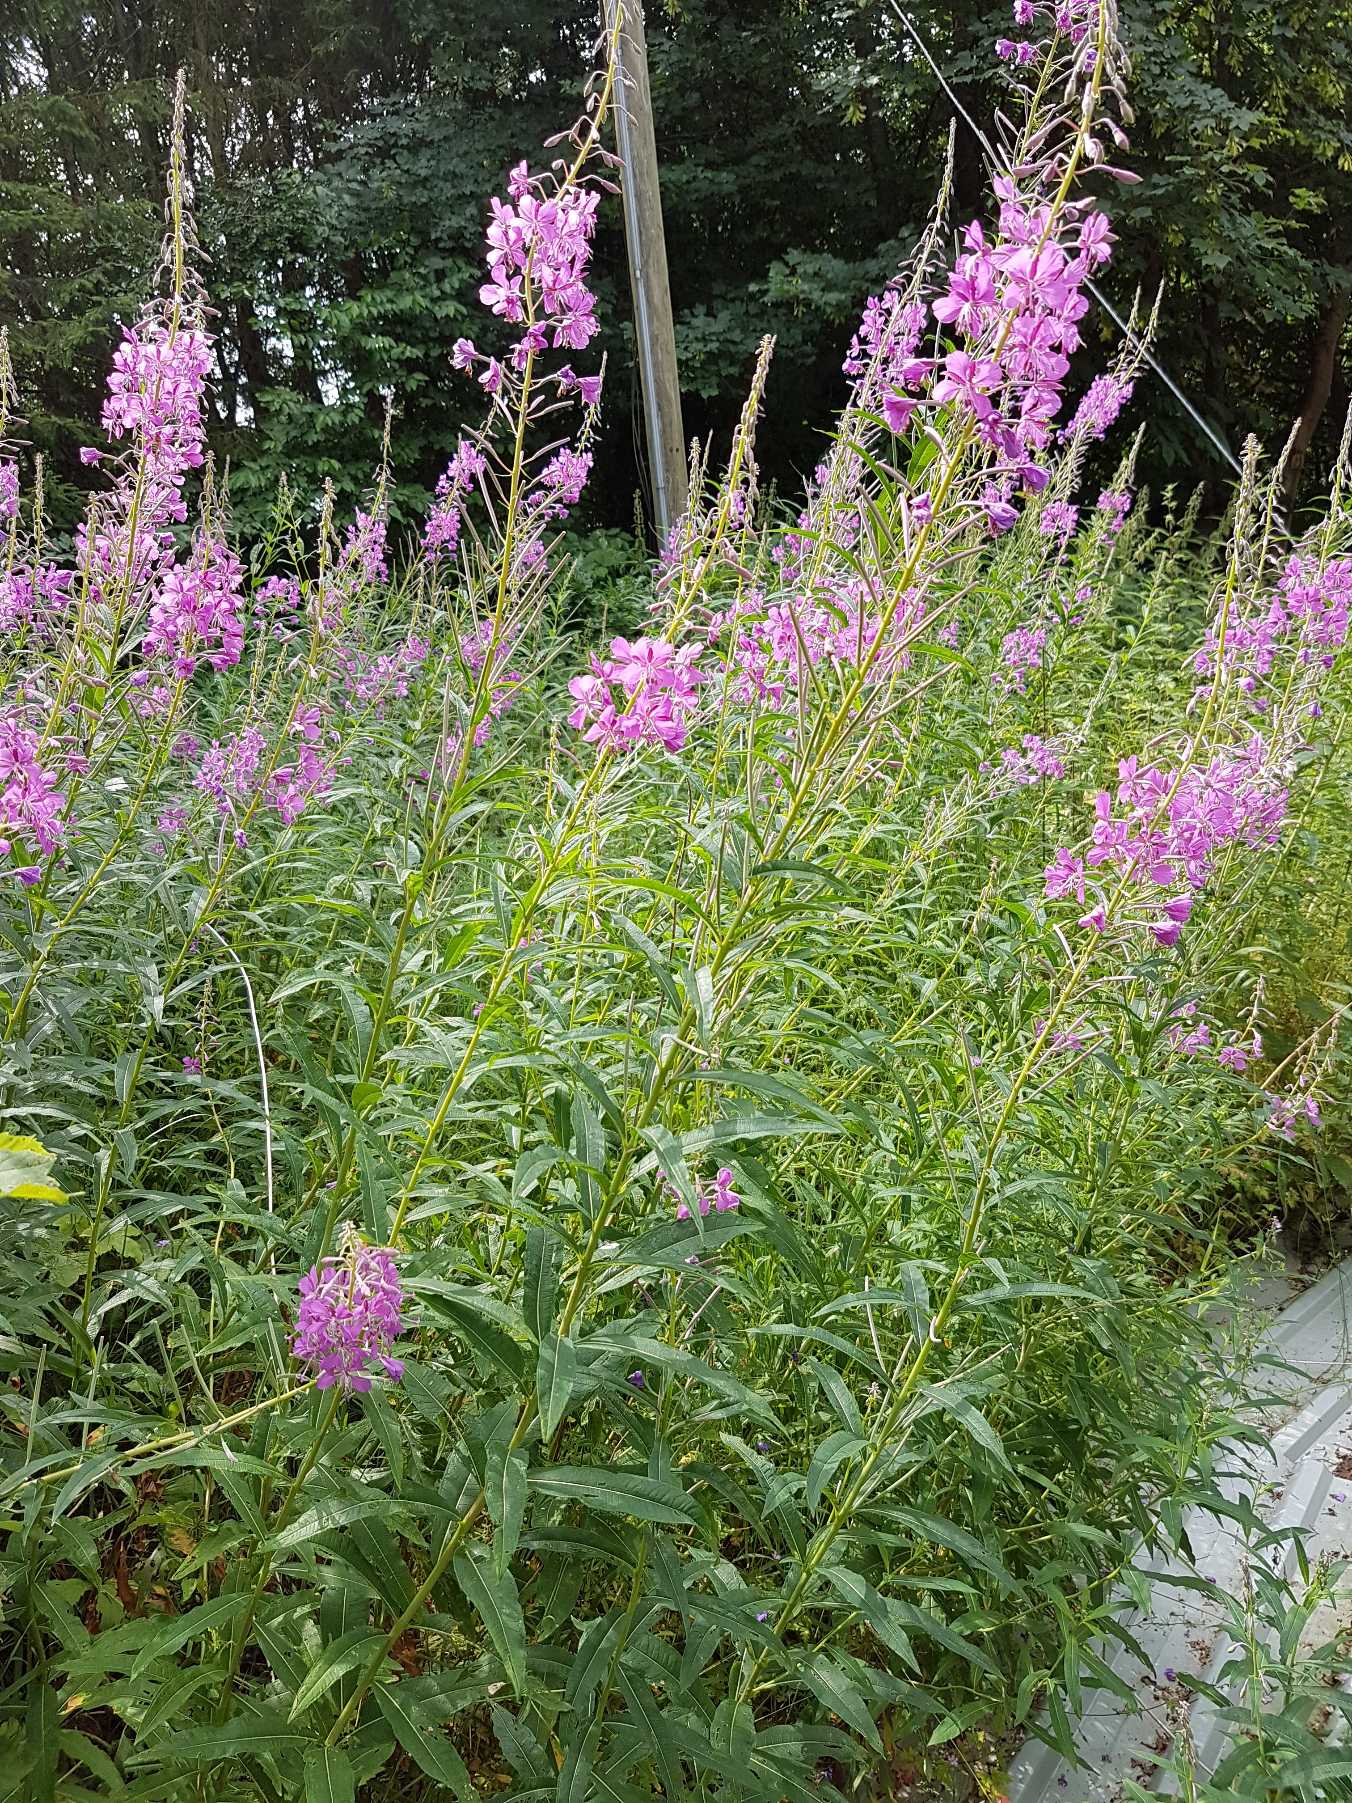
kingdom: Plantae
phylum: Tracheophyta
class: Magnoliopsida
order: Myrtales
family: Onagraceae
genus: Chamaenerion
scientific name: Chamaenerion angustifolium
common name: Gederams
